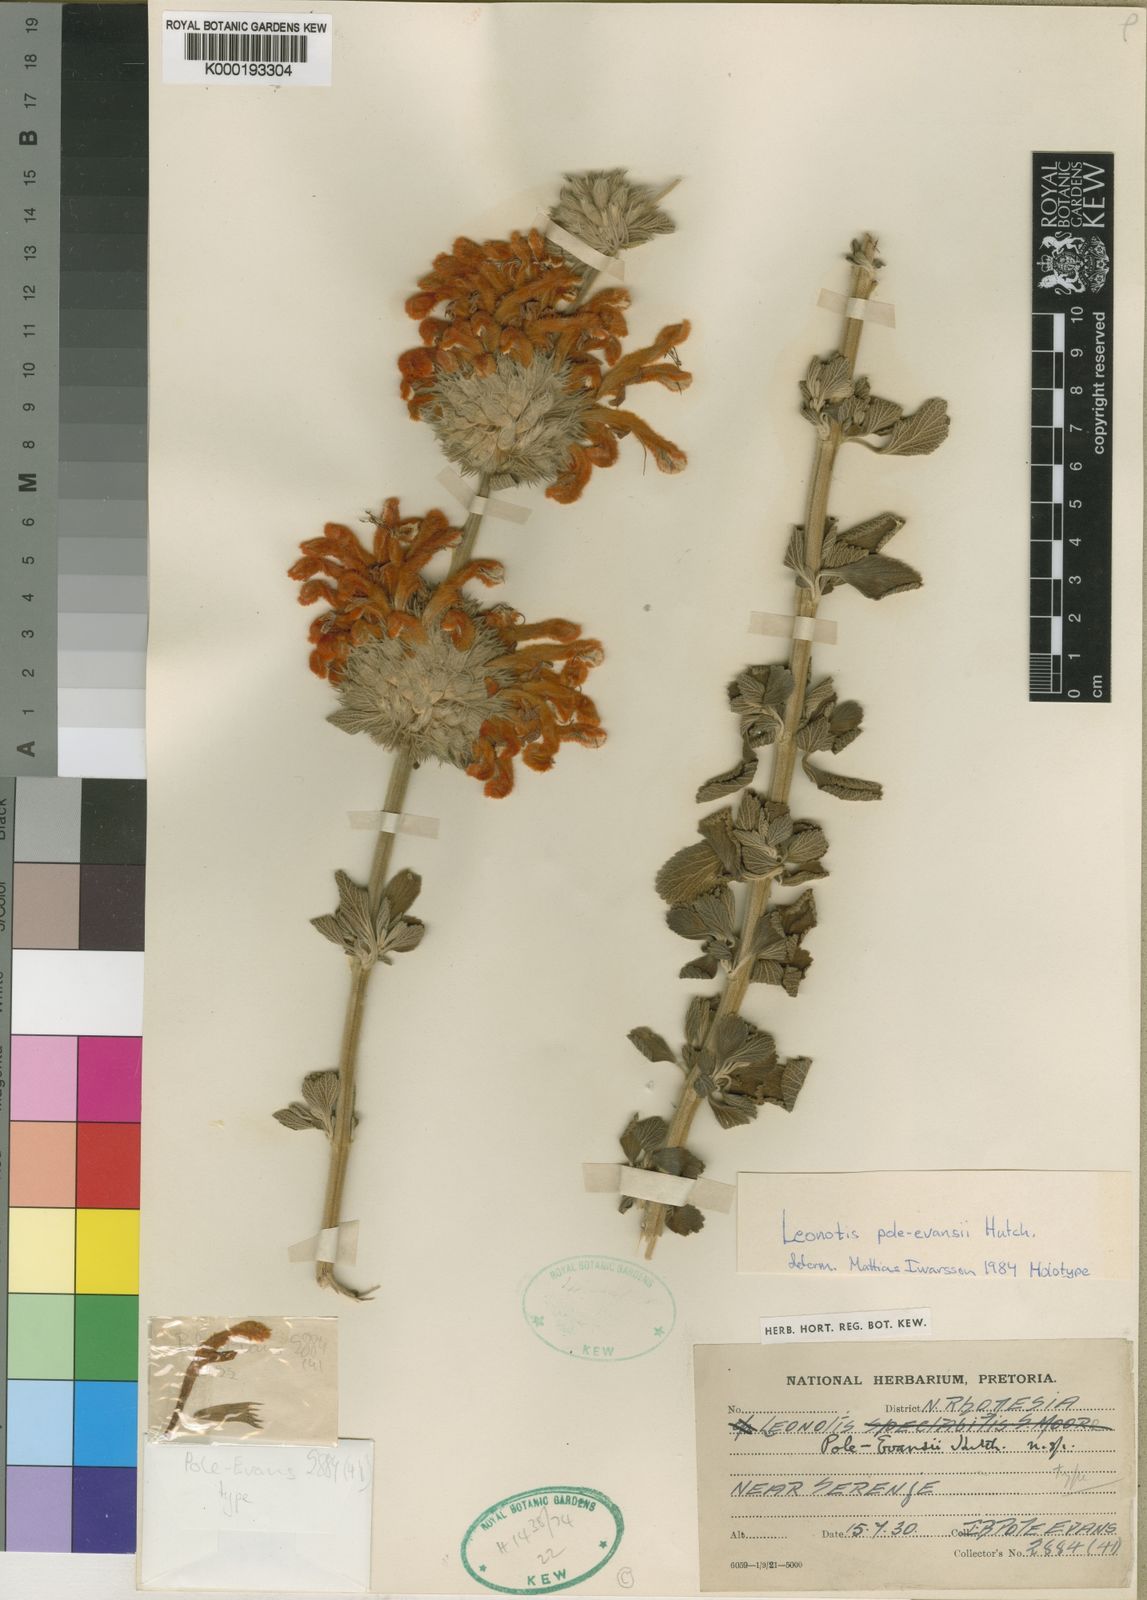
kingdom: Plantae
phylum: Tracheophyta
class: Magnoliopsida
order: Lamiales
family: Lamiaceae
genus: Leonotis
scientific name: Leonotis pole-evansii
